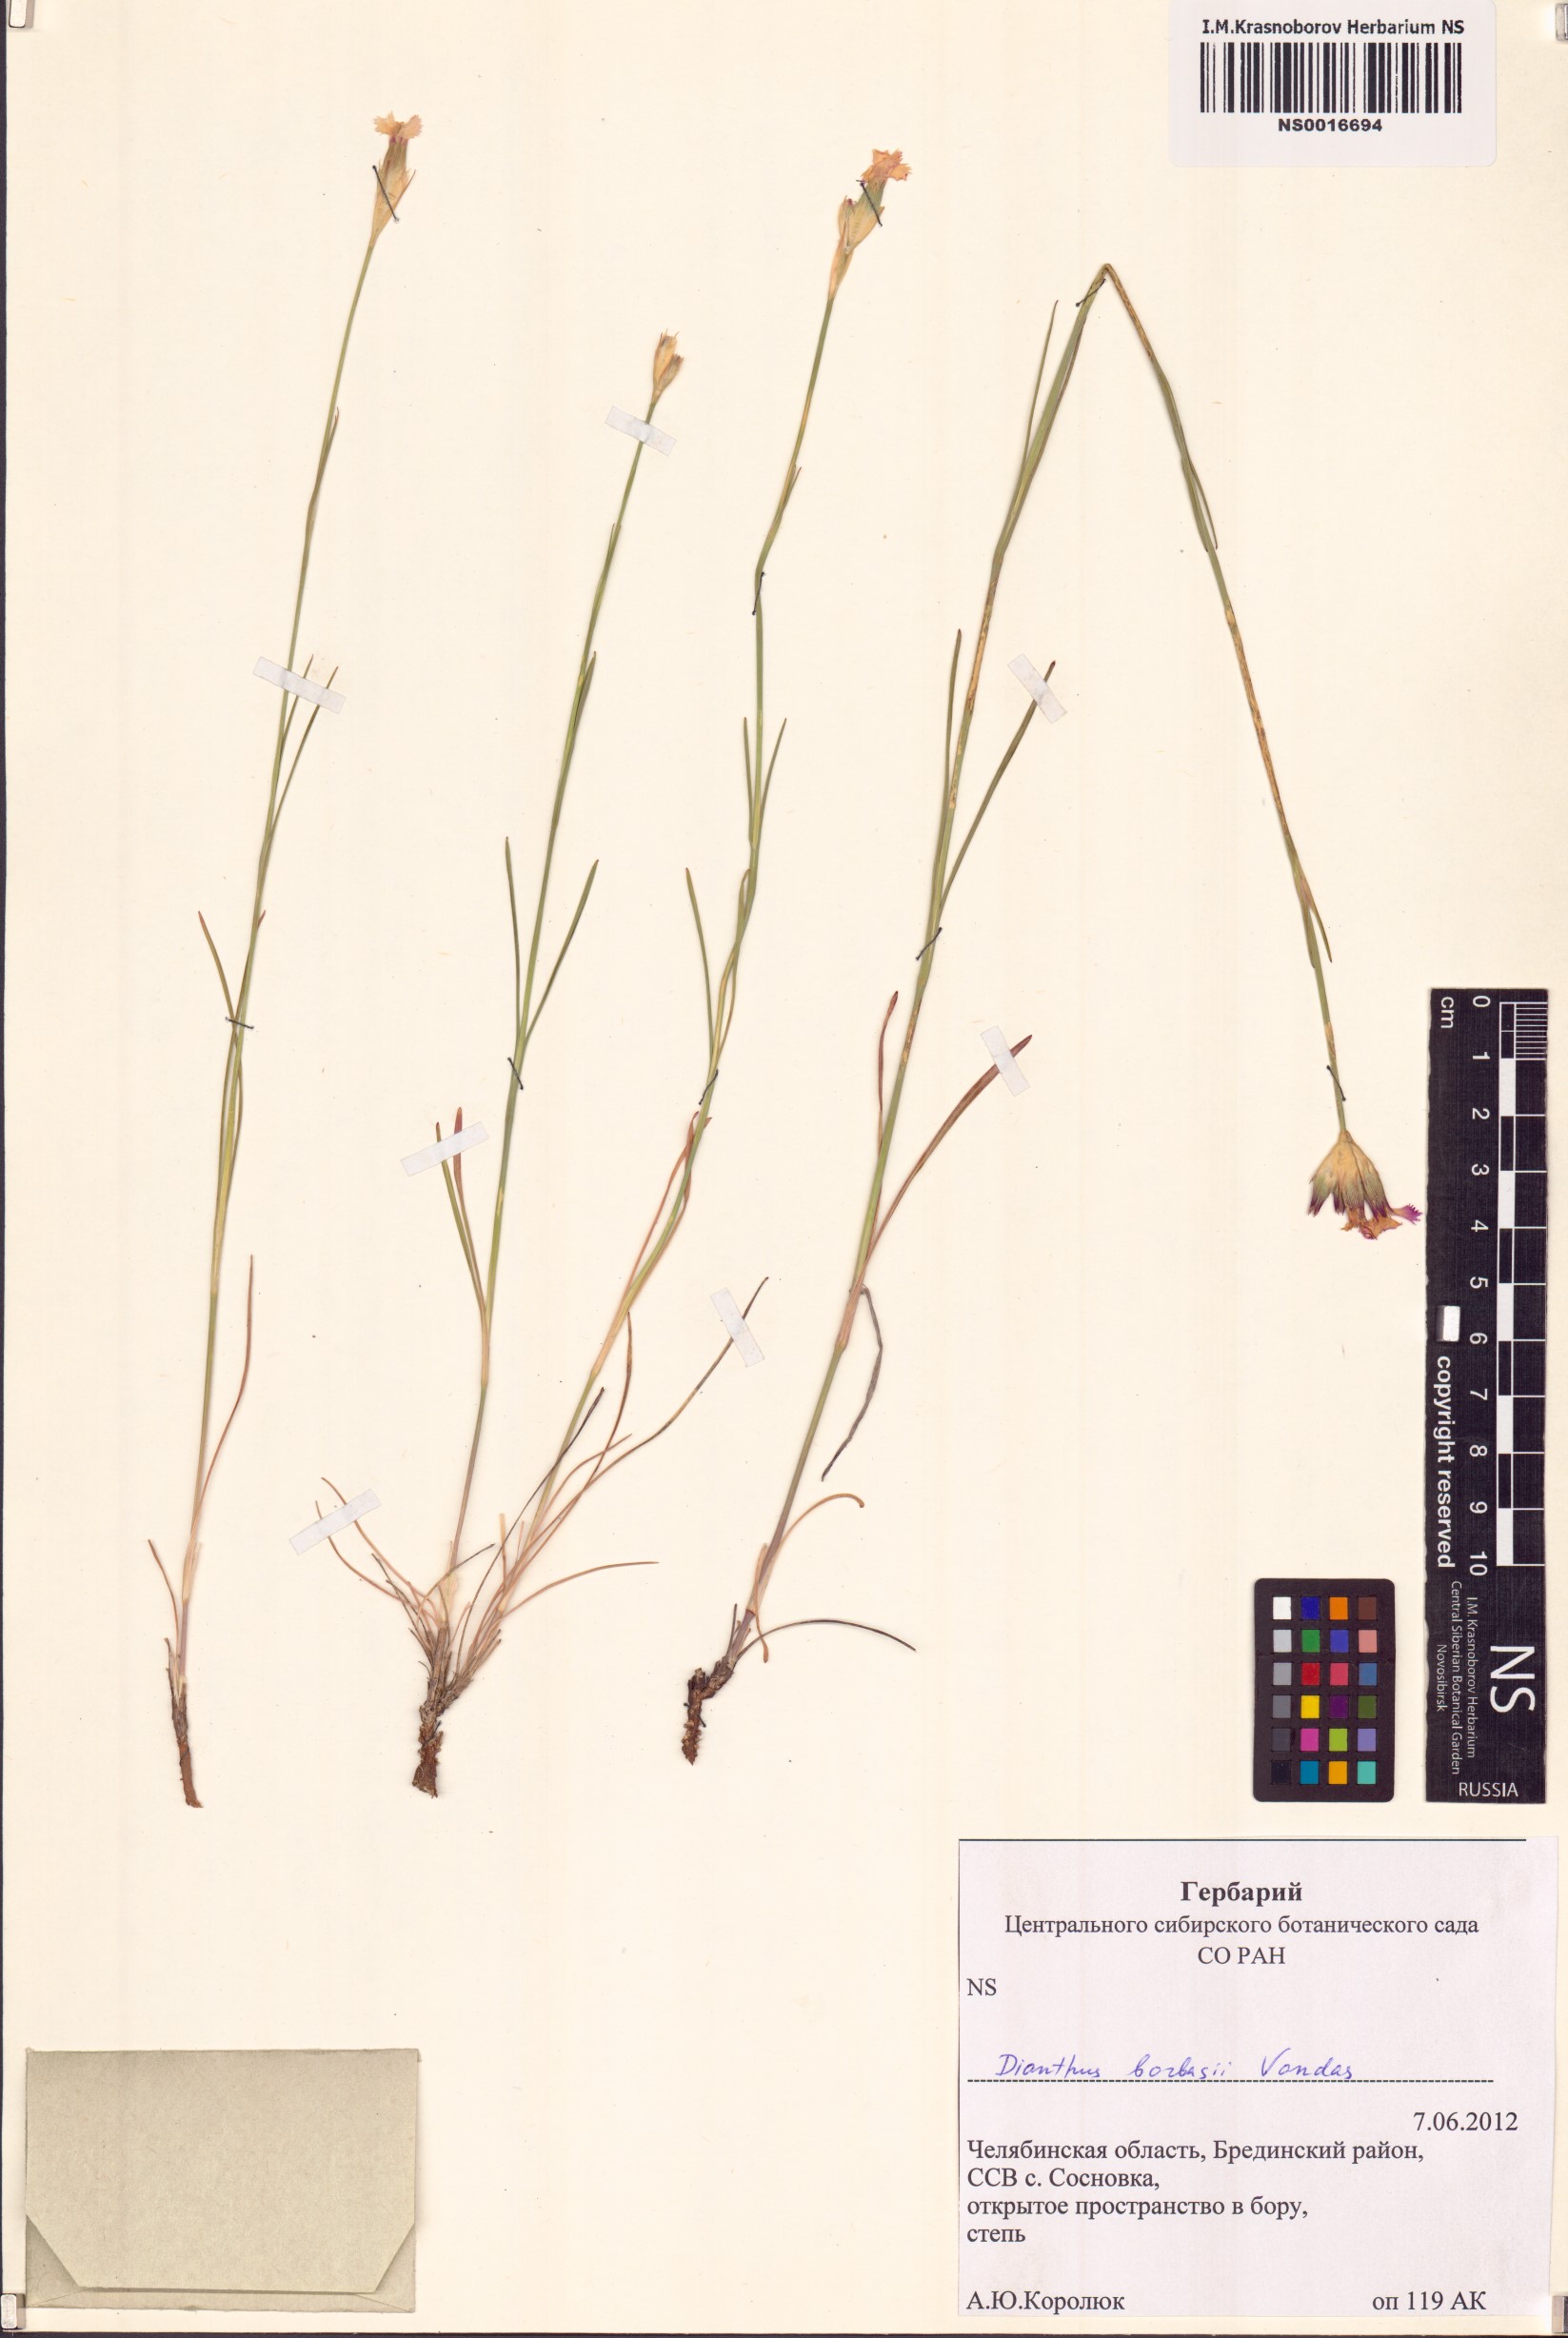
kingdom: Plantae
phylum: Tracheophyta
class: Magnoliopsida
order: Caryophyllales
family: Caryophyllaceae
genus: Dianthus
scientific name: Dianthus borbasii
